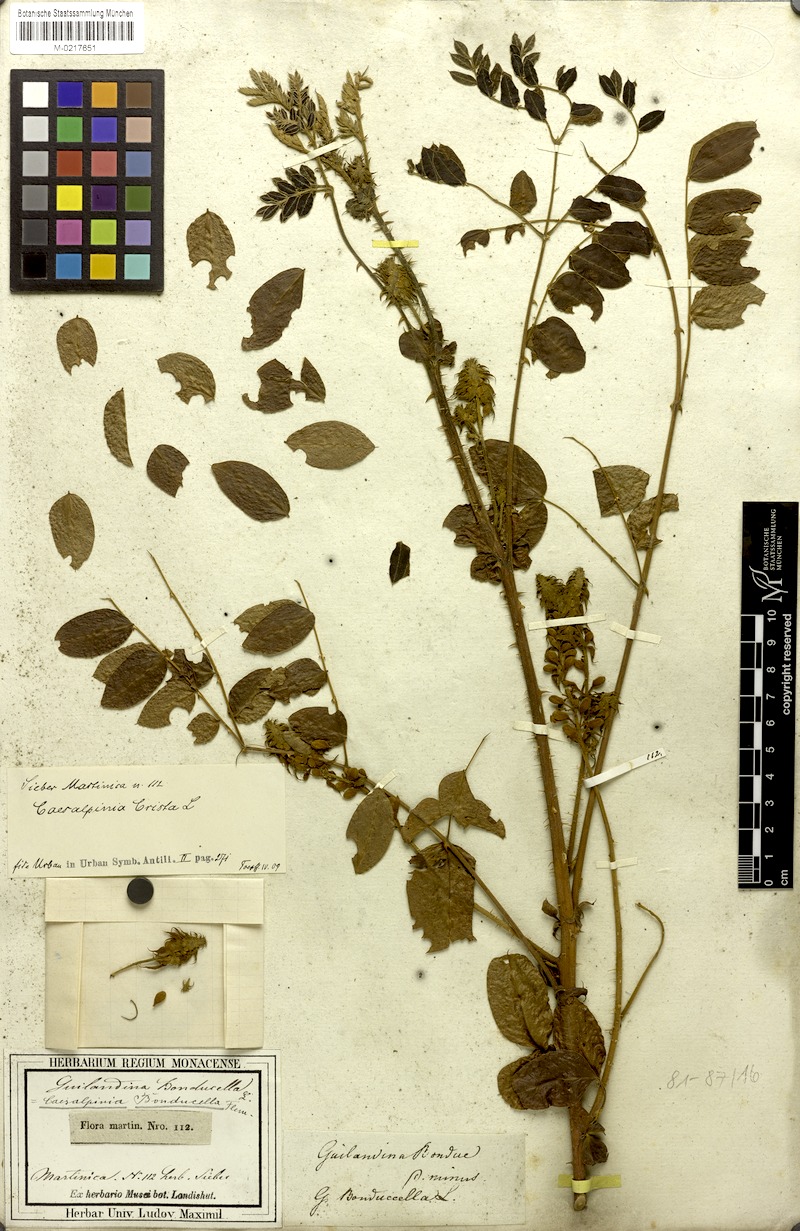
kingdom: Plantae
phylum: Tracheophyta
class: Magnoliopsida
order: Fabales
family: Fabaceae
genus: Guilandina
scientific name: Guilandina bonduc
